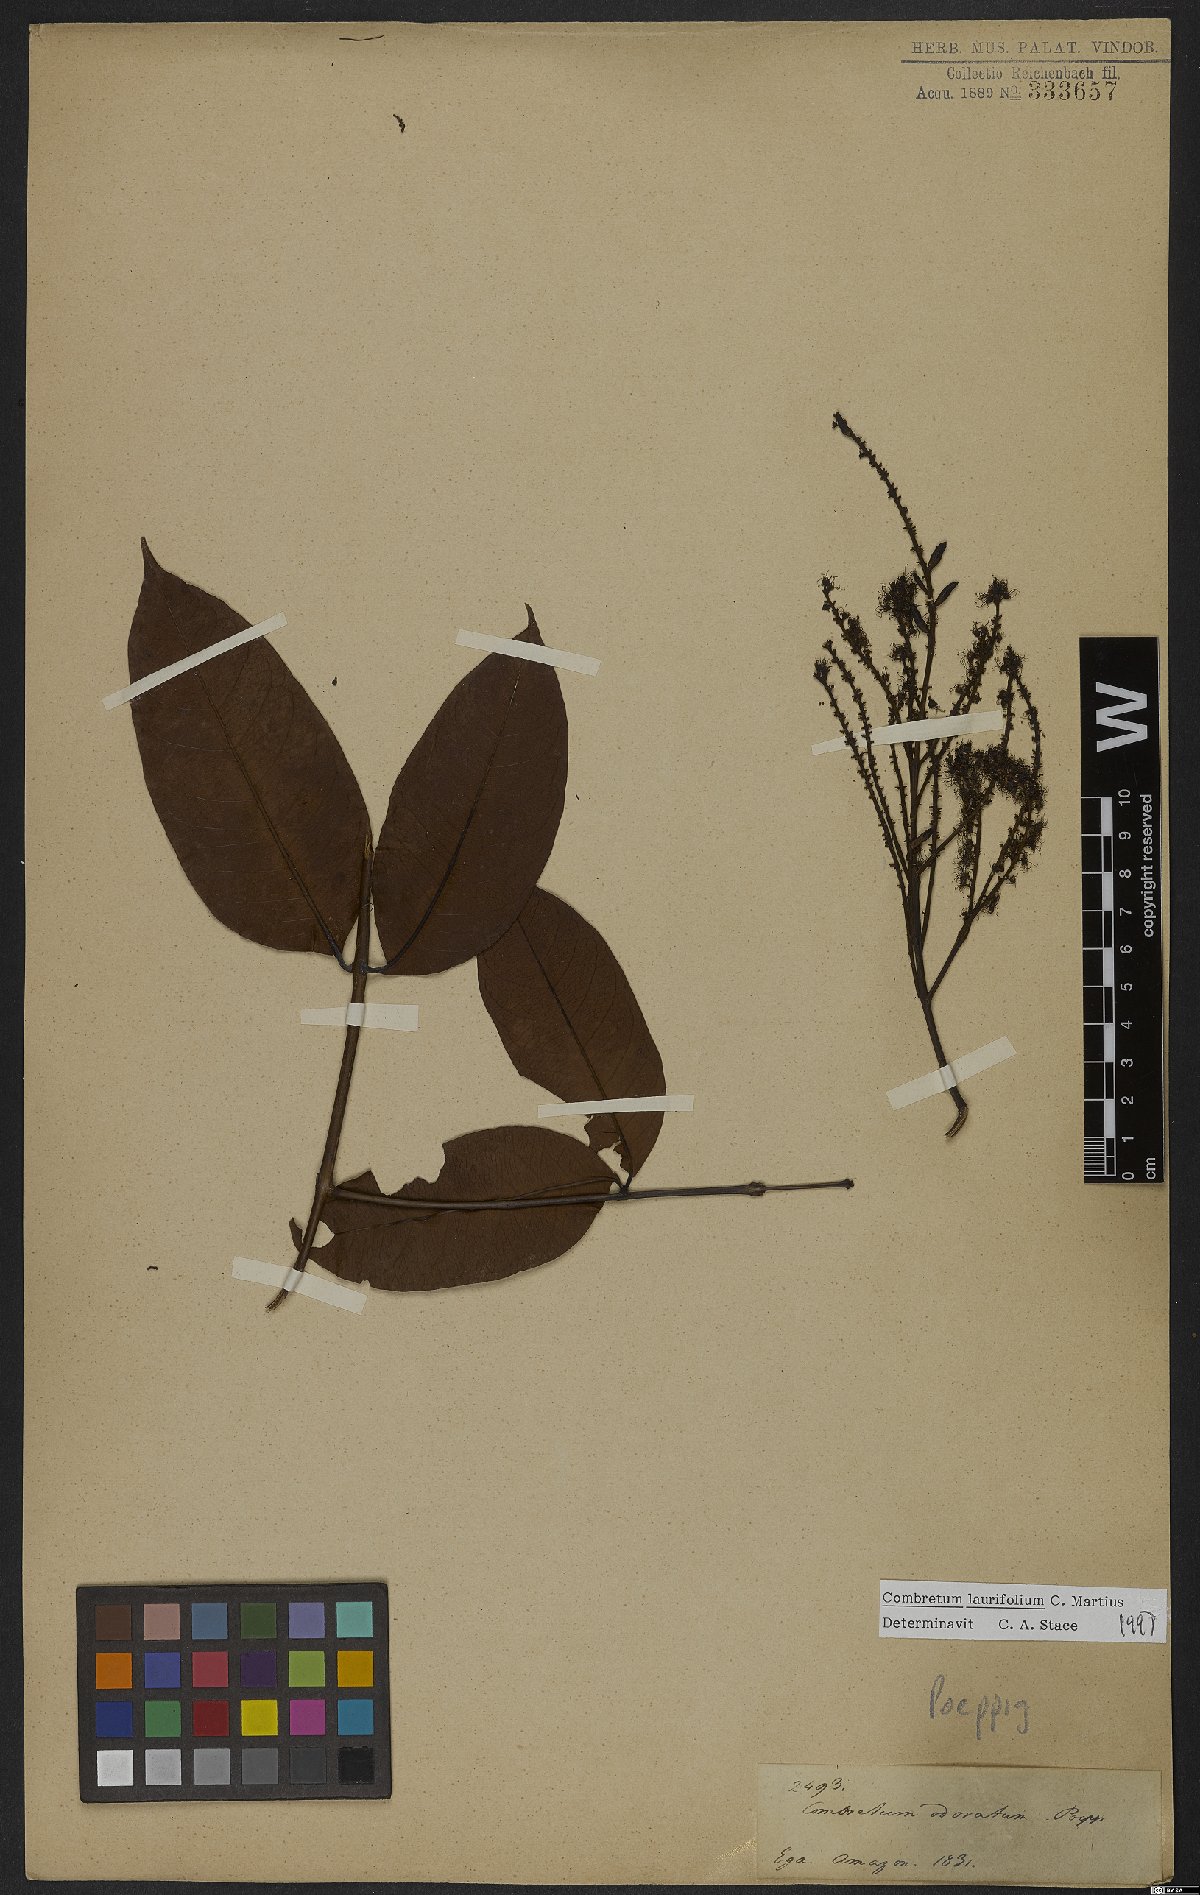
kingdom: Plantae
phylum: Tracheophyta
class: Magnoliopsida
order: Myrtales
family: Combretaceae
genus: Combretum
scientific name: Combretum coriifolium
